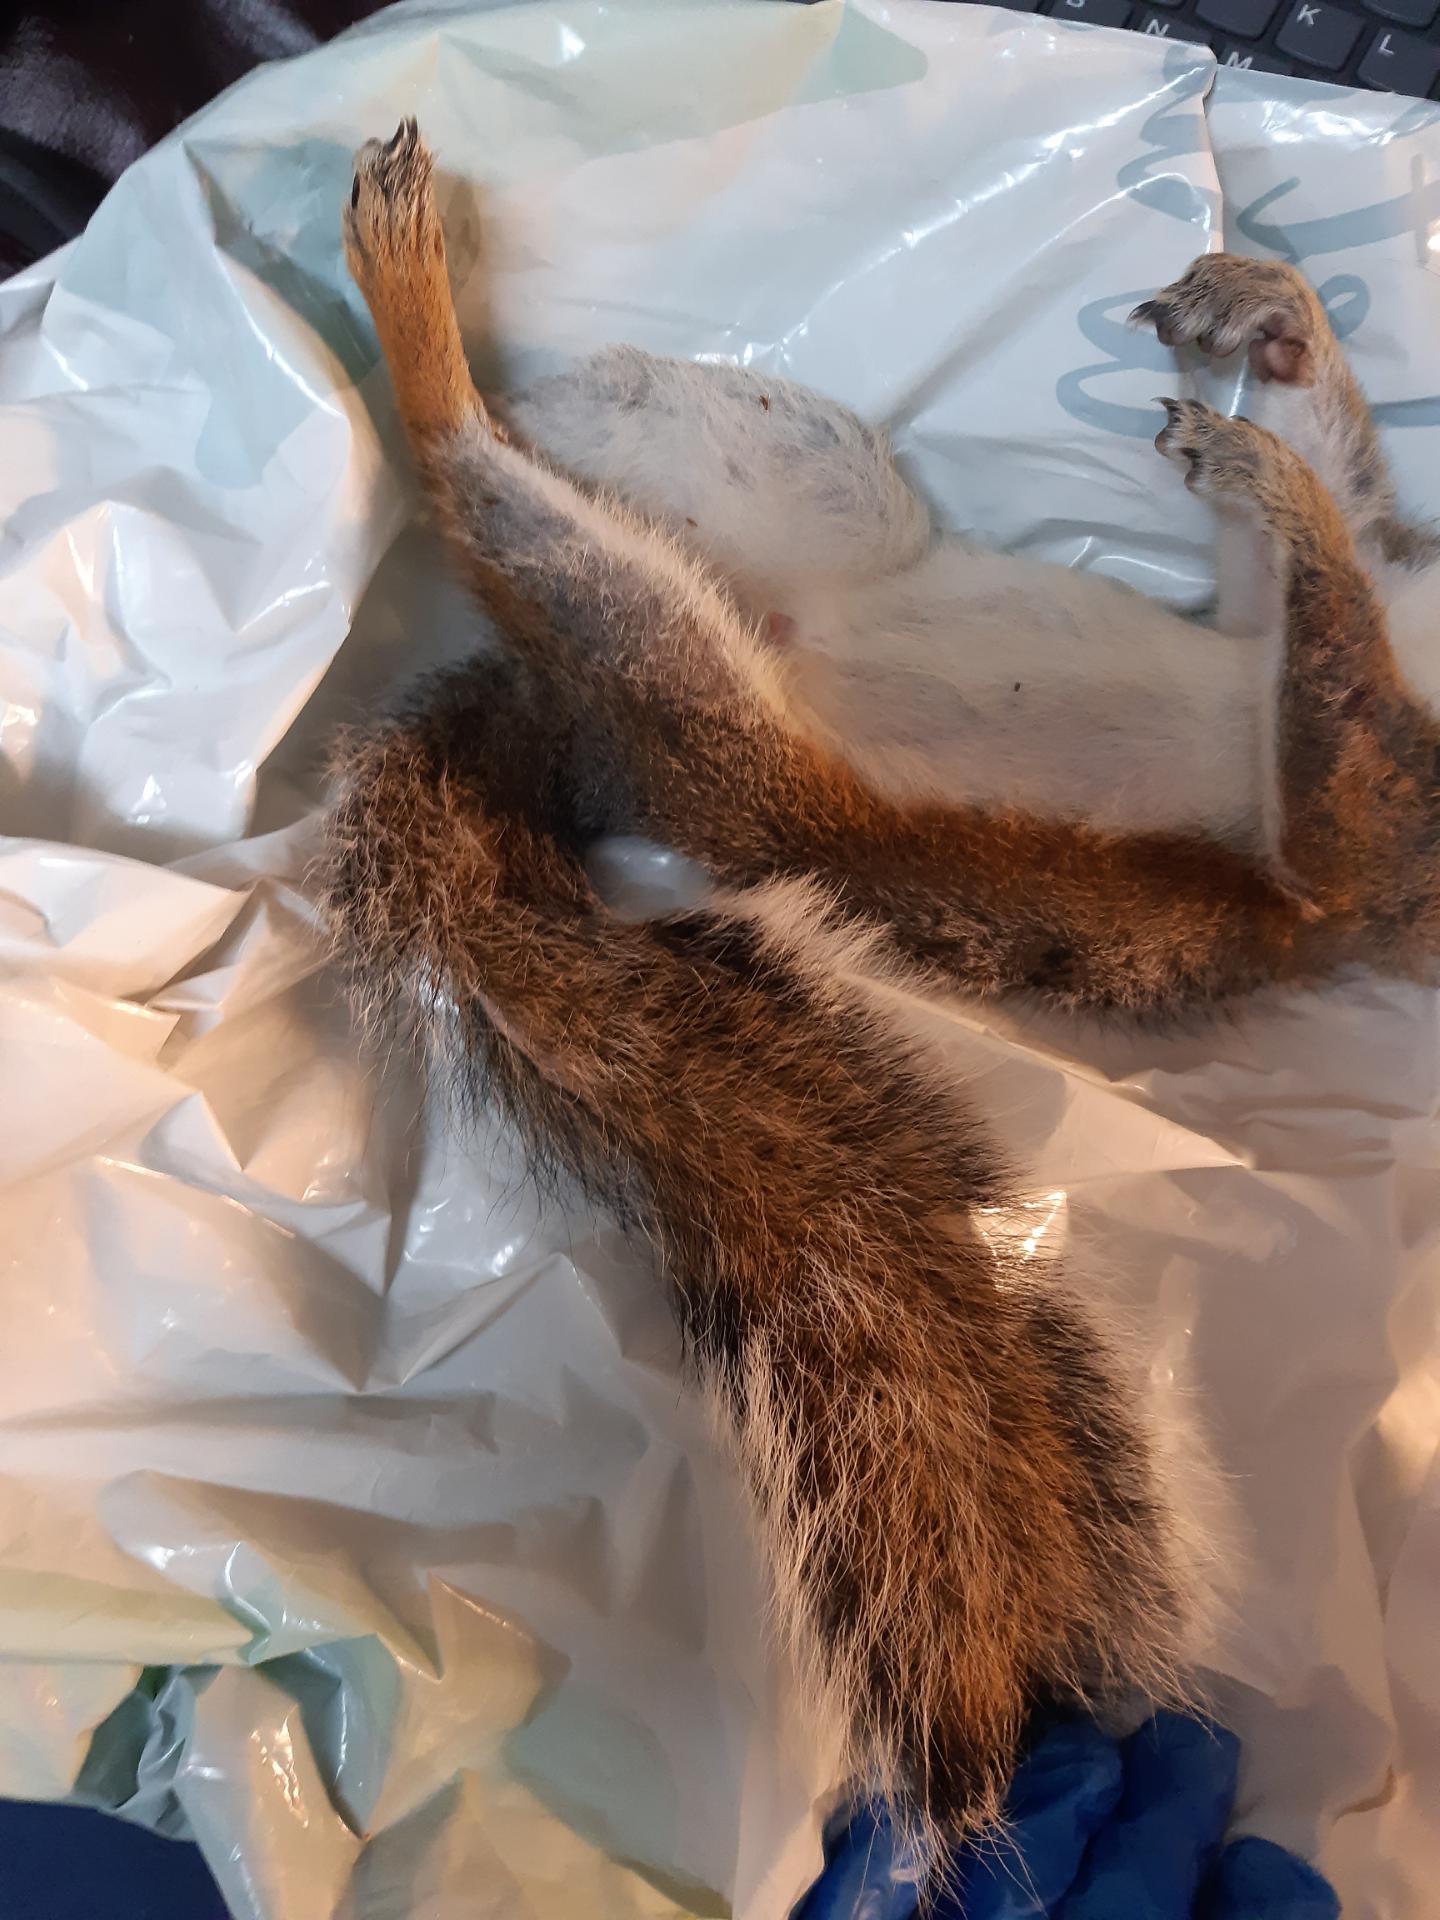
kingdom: Animalia
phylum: Chordata
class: Mammalia
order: Rodentia
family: Sciuridae
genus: Sciurus
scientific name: Sciurus carolinensis
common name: Eastern gray squirrel
